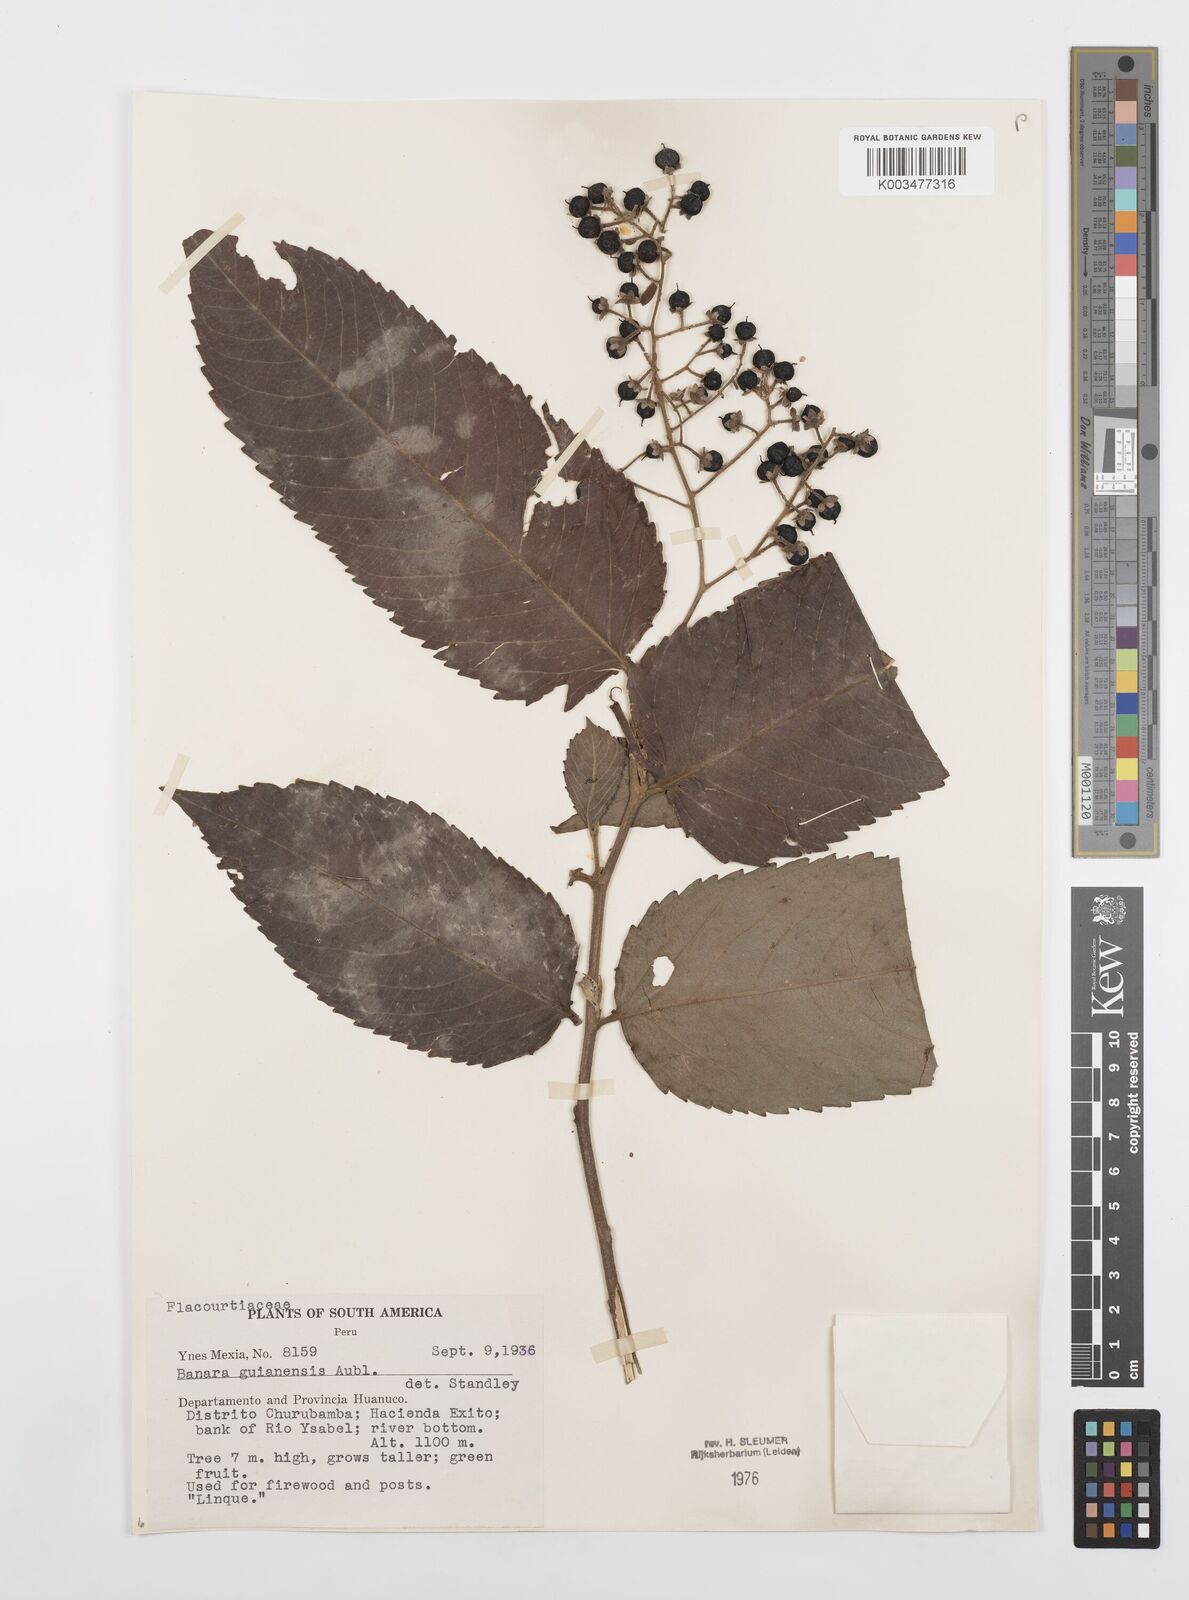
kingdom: Plantae
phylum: Tracheophyta
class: Magnoliopsida
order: Malpighiales
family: Salicaceae
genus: Banara
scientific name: Banara guianensis
